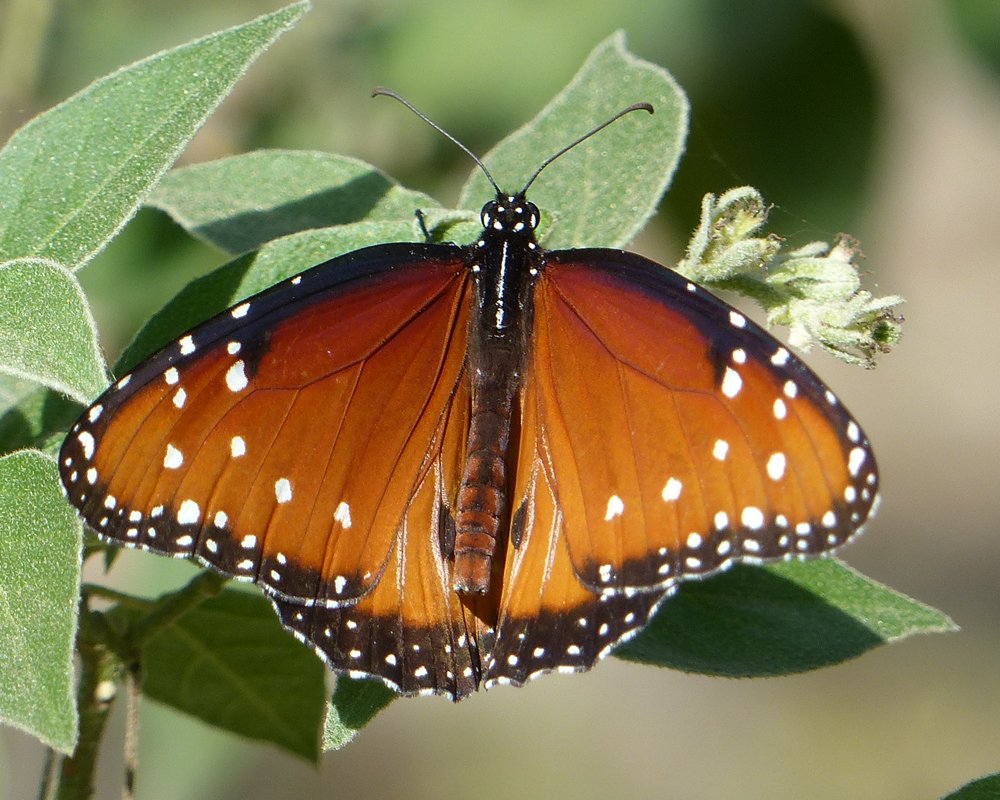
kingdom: Animalia
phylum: Arthropoda
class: Insecta
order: Lepidoptera
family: Nymphalidae
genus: Danaus
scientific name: Danaus gilippus
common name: Queen
